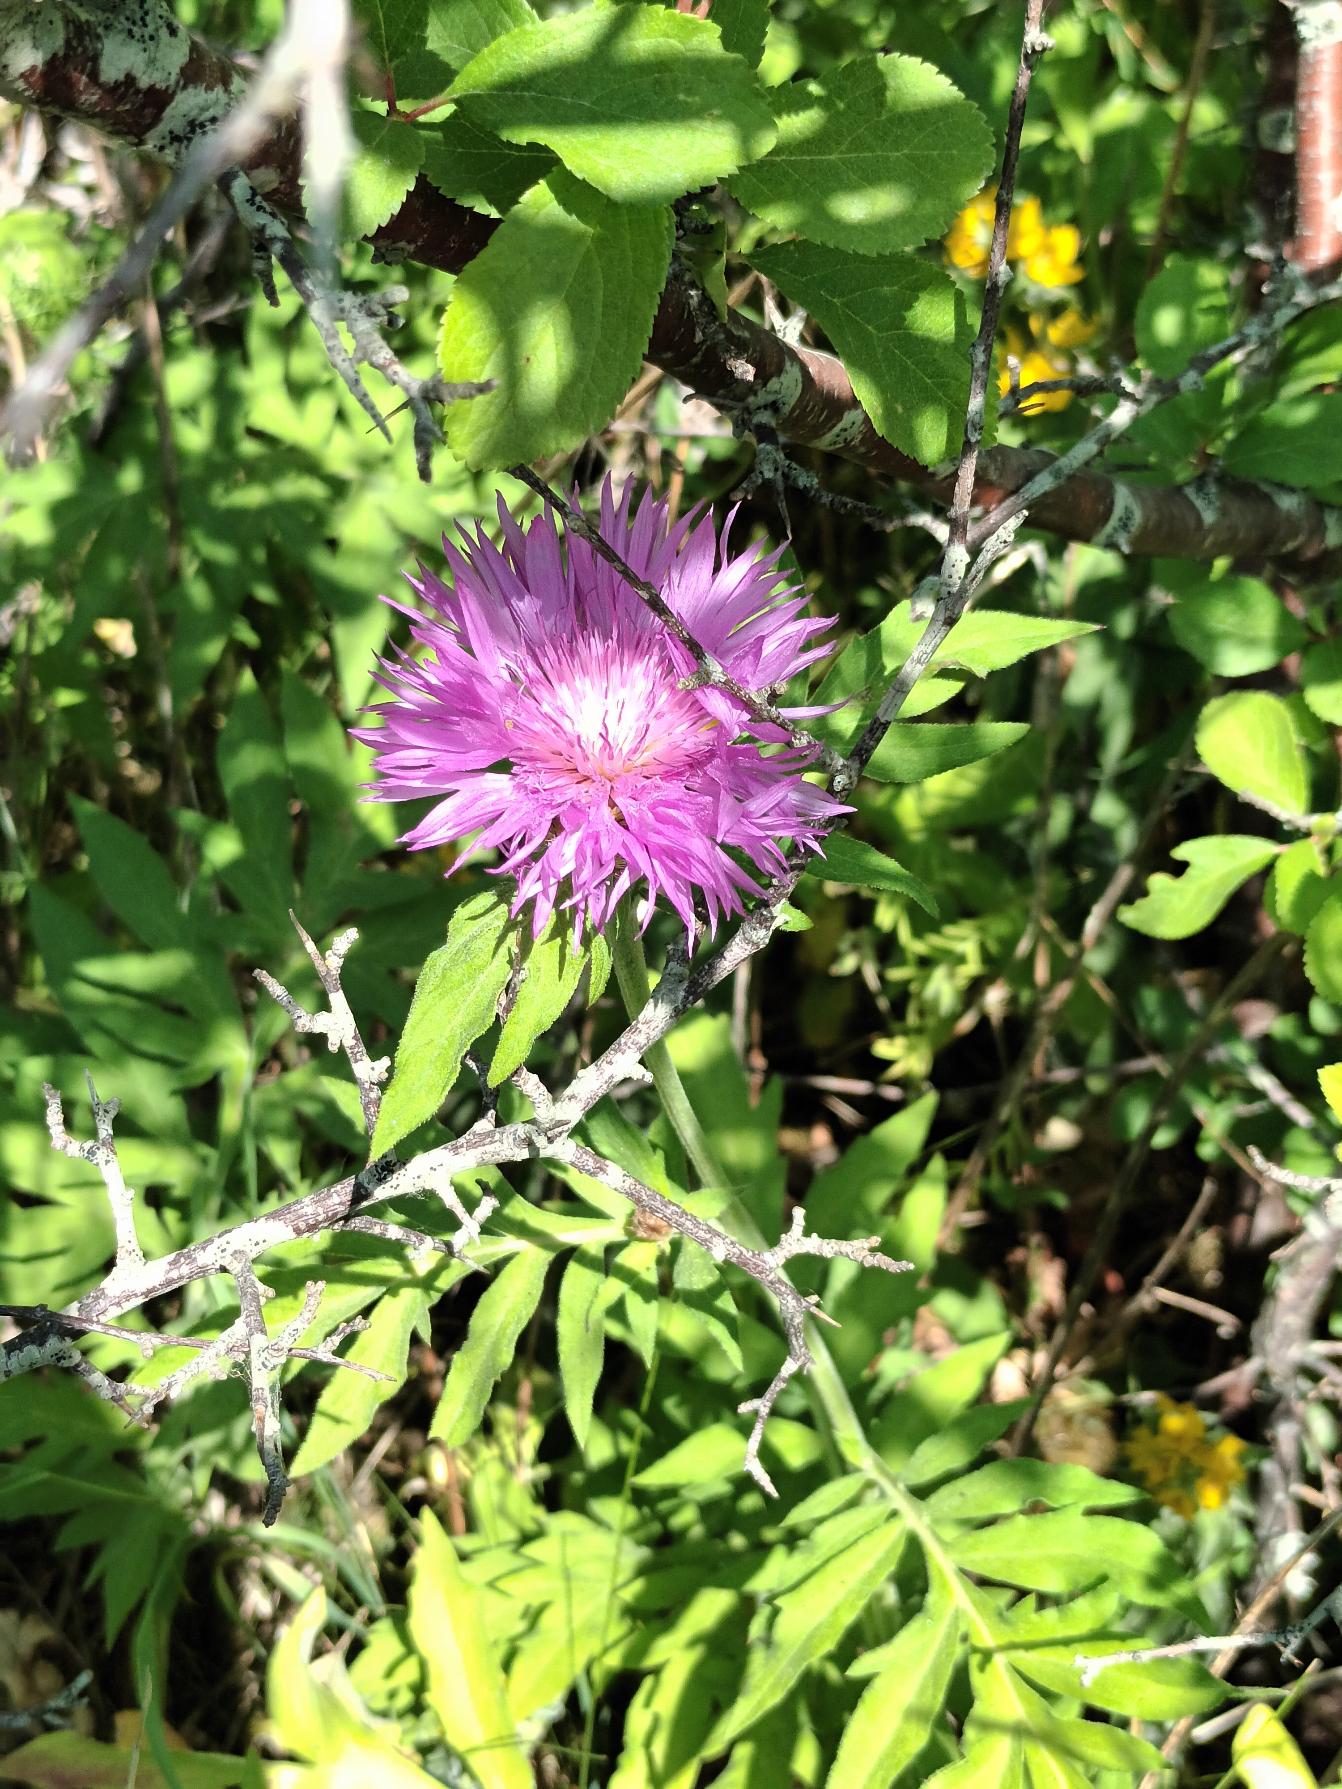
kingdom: Plantae
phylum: Tracheophyta
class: Magnoliopsida
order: Asterales
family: Asteraceae
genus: Psephellus
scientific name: Psephellus dealbatus
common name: Have-knopurt
